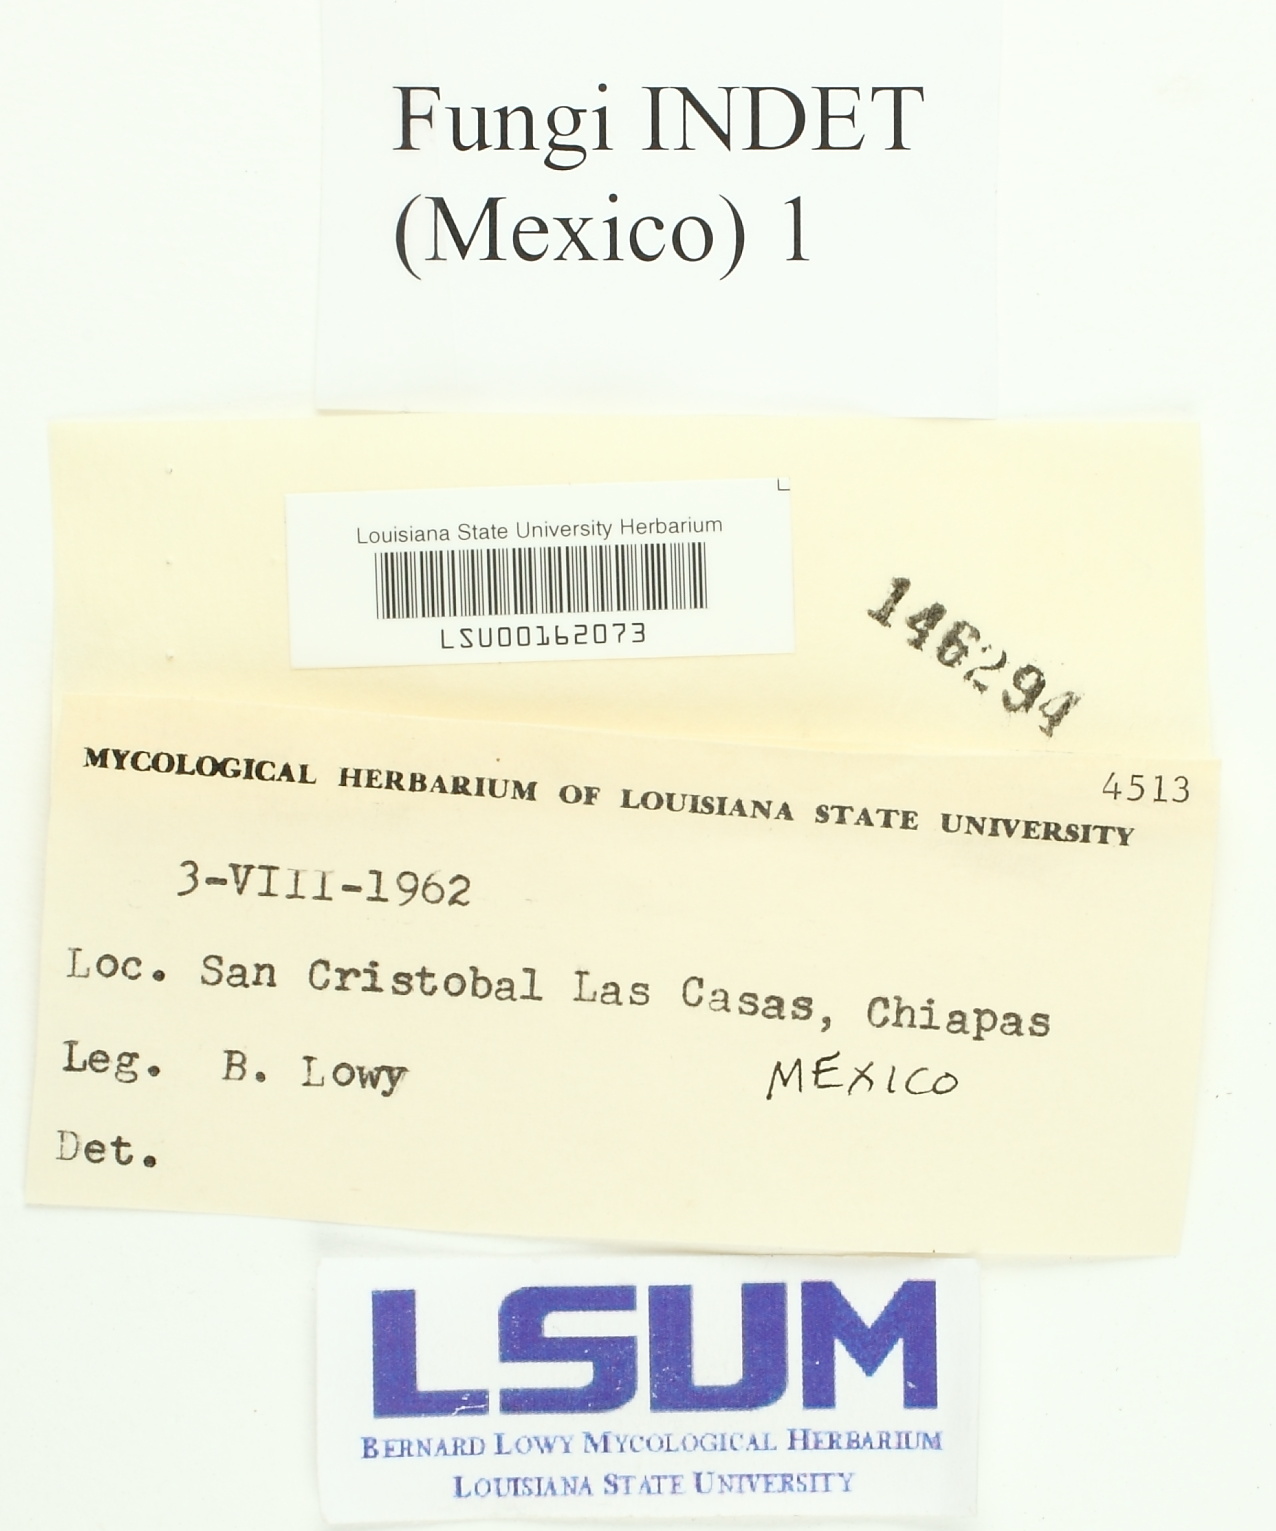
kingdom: Fungi
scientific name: Fungi
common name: Fungi
